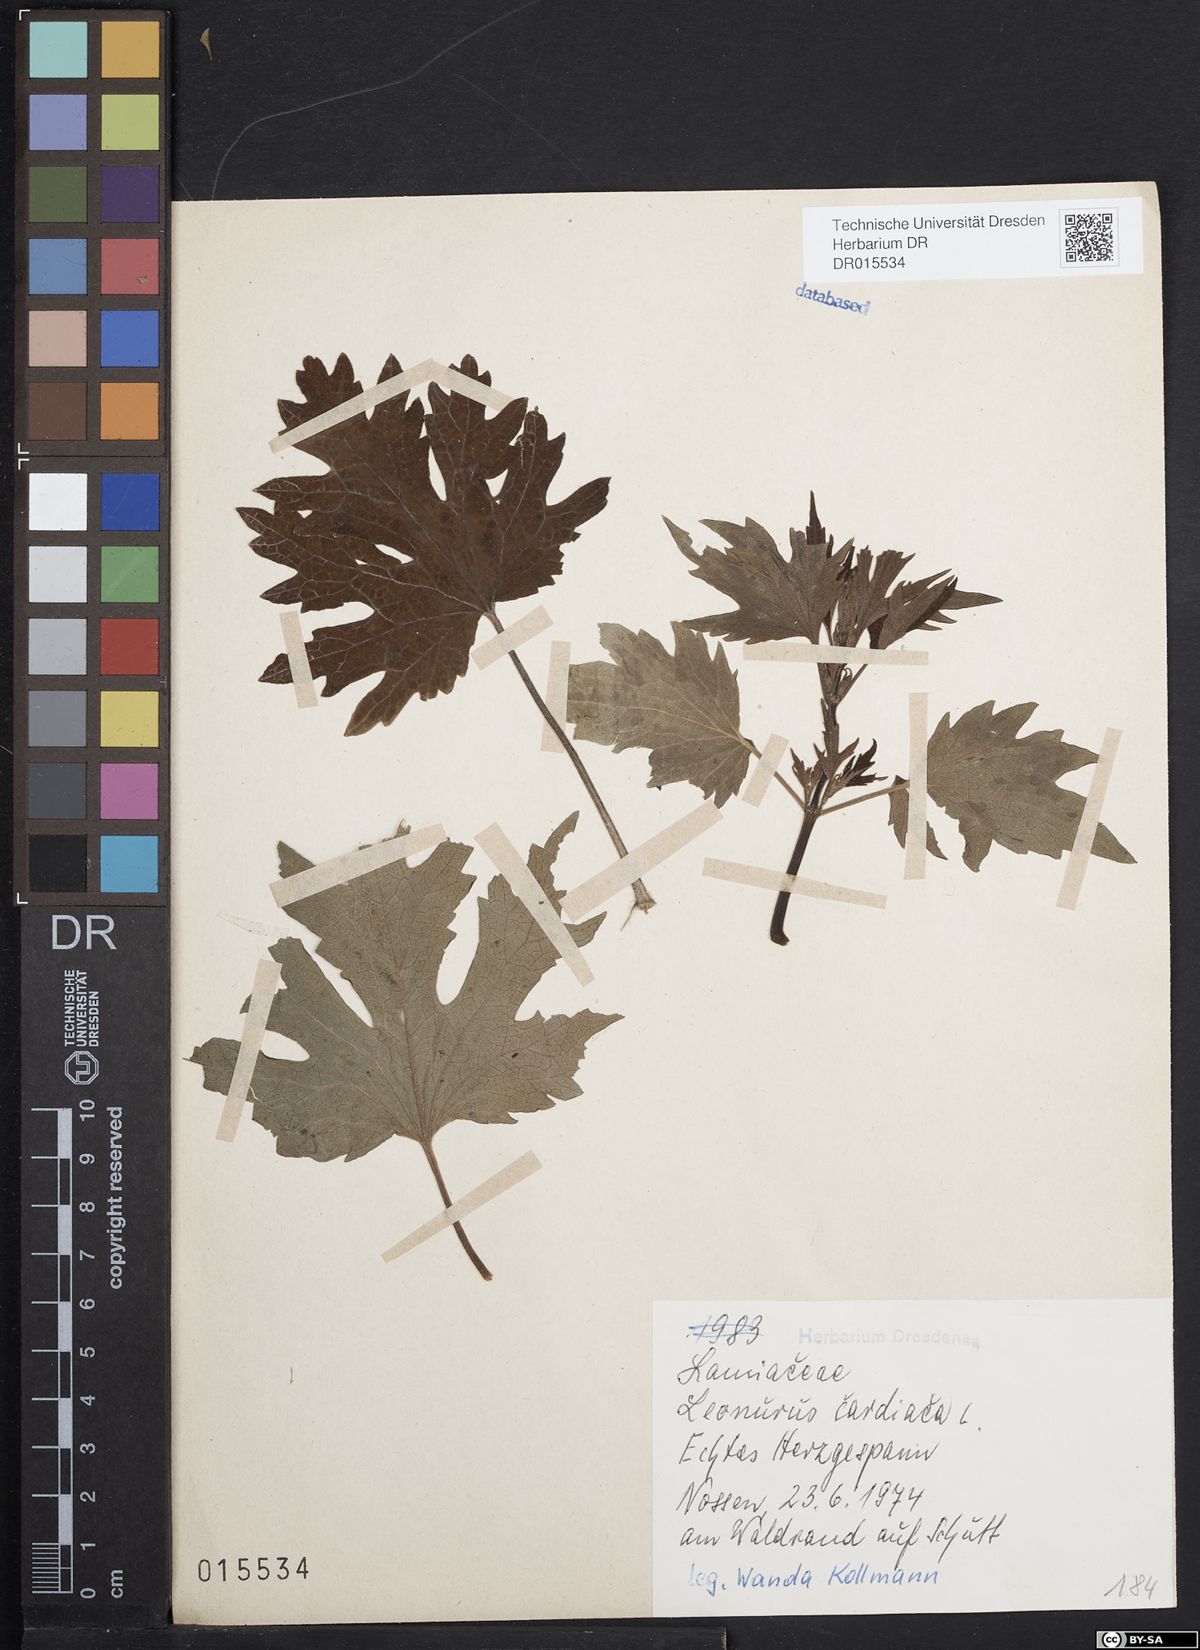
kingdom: Plantae
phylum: Tracheophyta
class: Magnoliopsida
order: Lamiales
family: Lamiaceae
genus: Leonurus
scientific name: Leonurus cardiaca
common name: Motherwort
